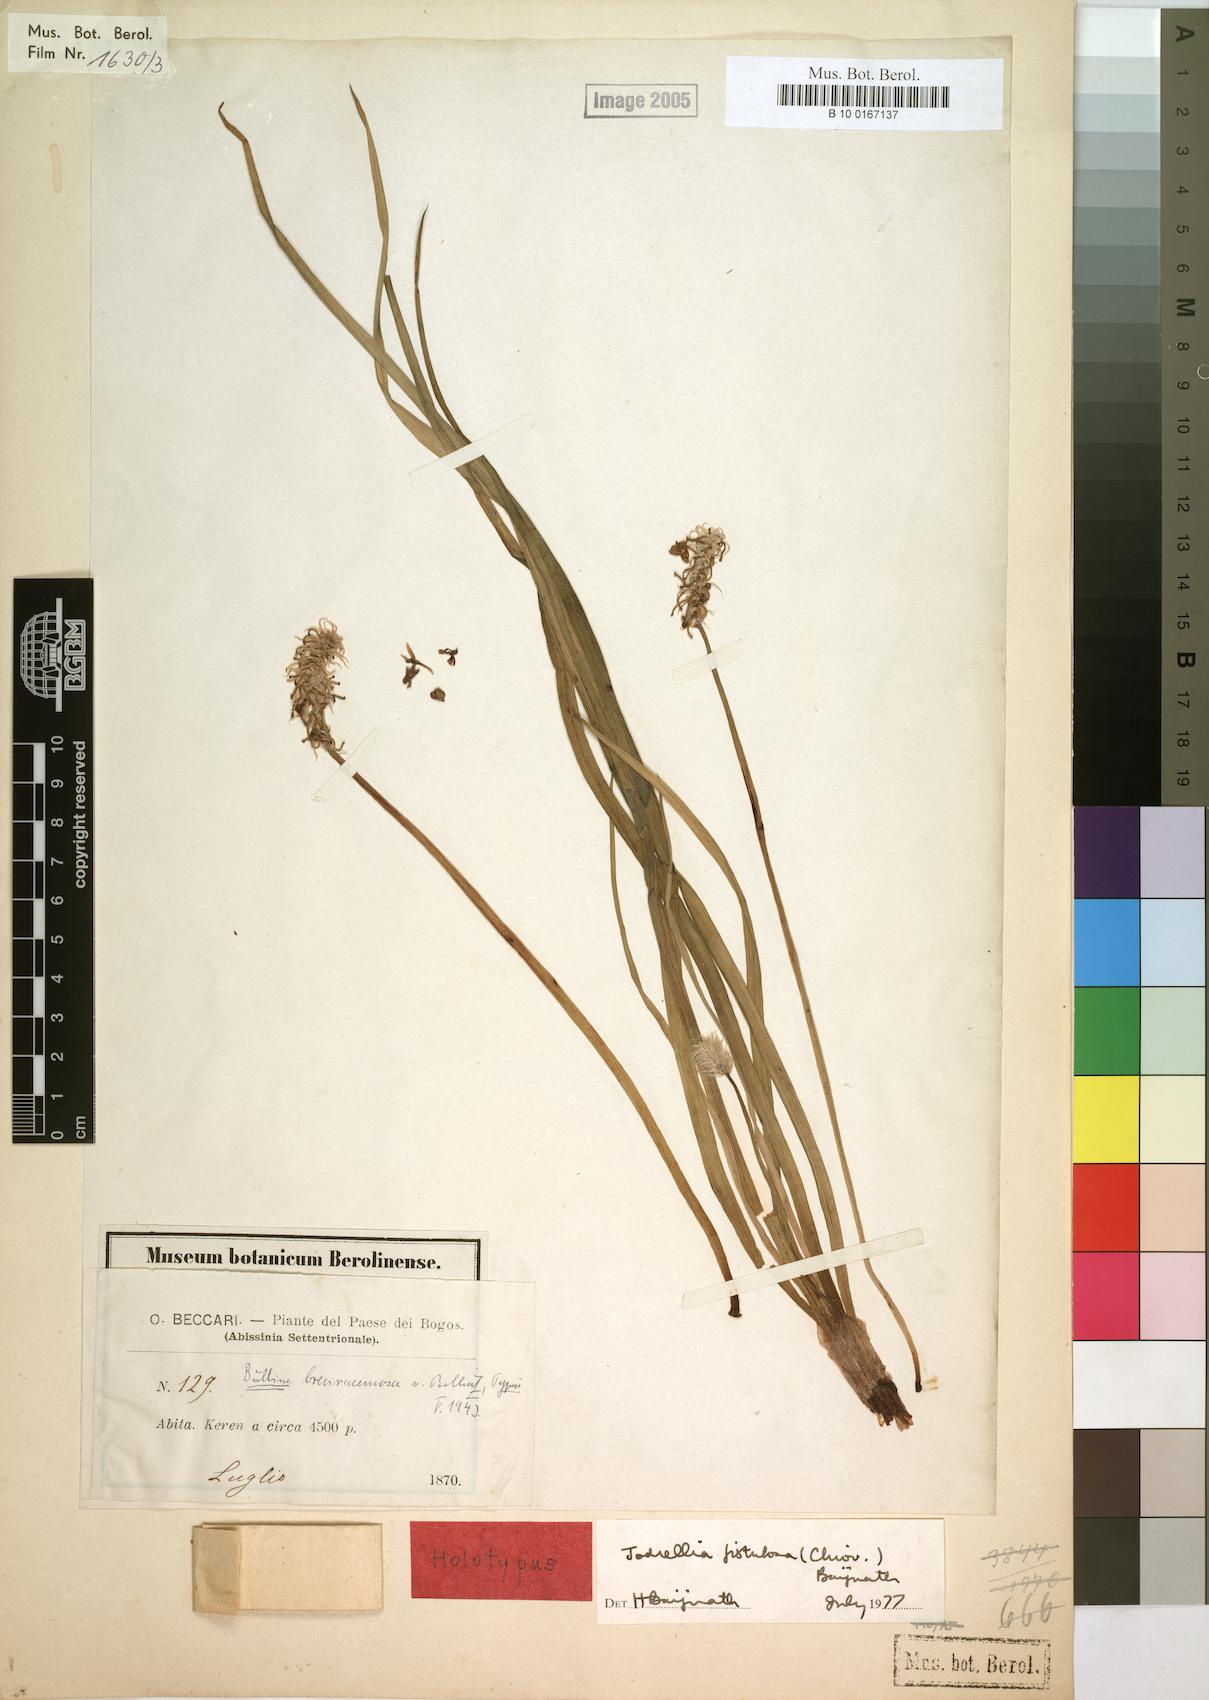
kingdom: Plantae
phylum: Tracheophyta
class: Liliopsida
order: Asparagales
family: Asphodelaceae
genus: Bulbine
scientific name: Bulbine fistulosa
